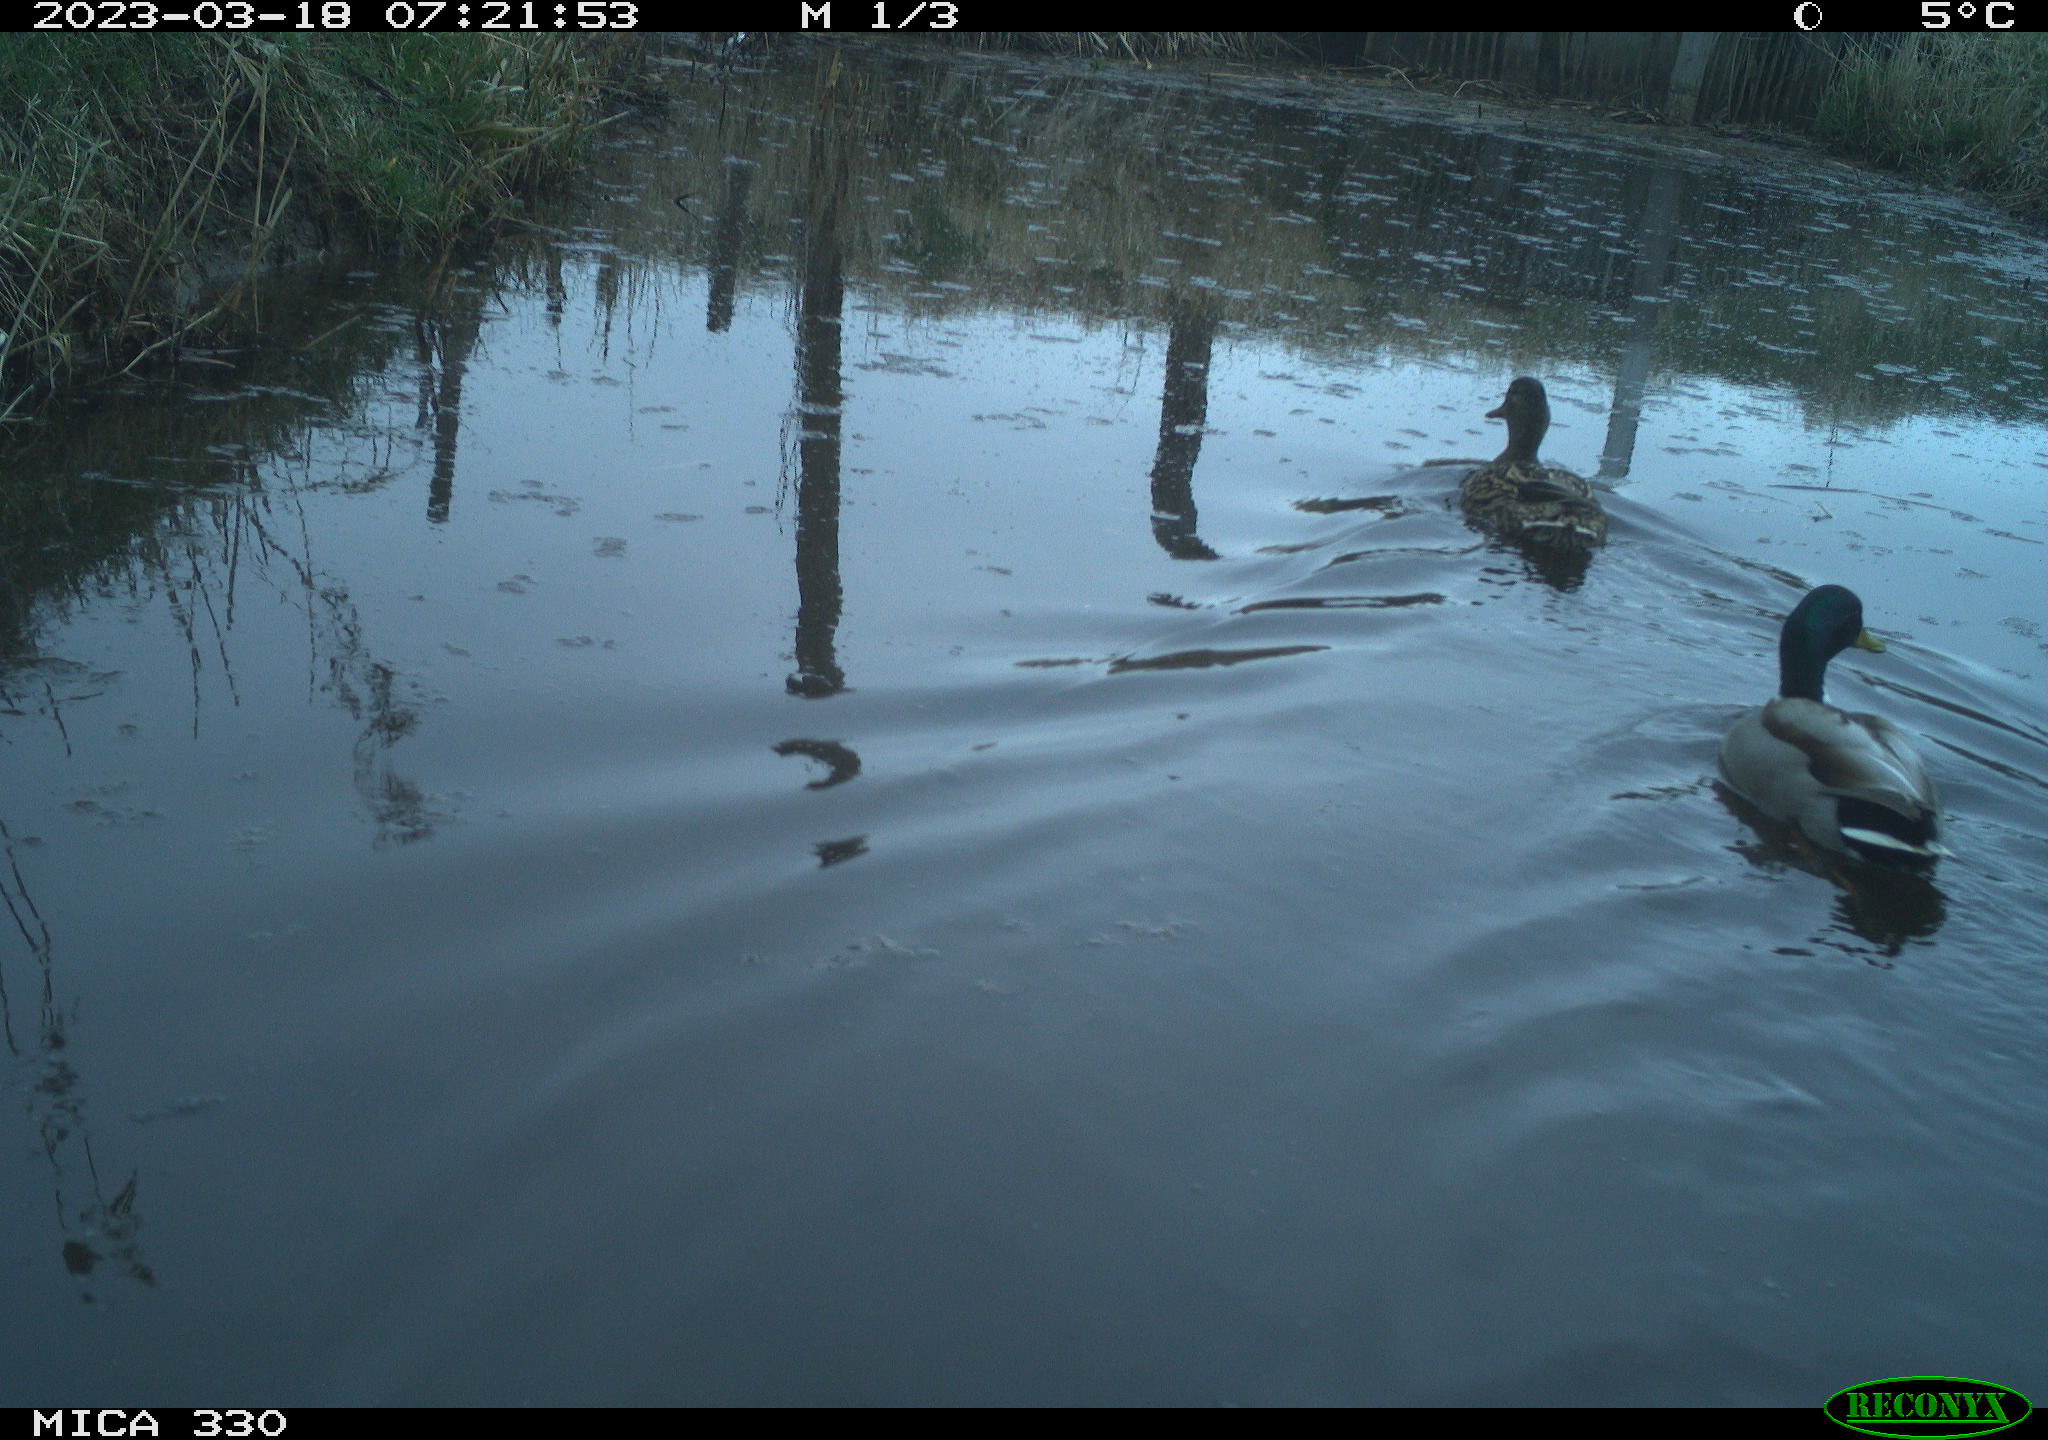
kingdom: Animalia
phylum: Chordata
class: Aves
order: Anseriformes
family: Anatidae
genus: Anas
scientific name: Anas
